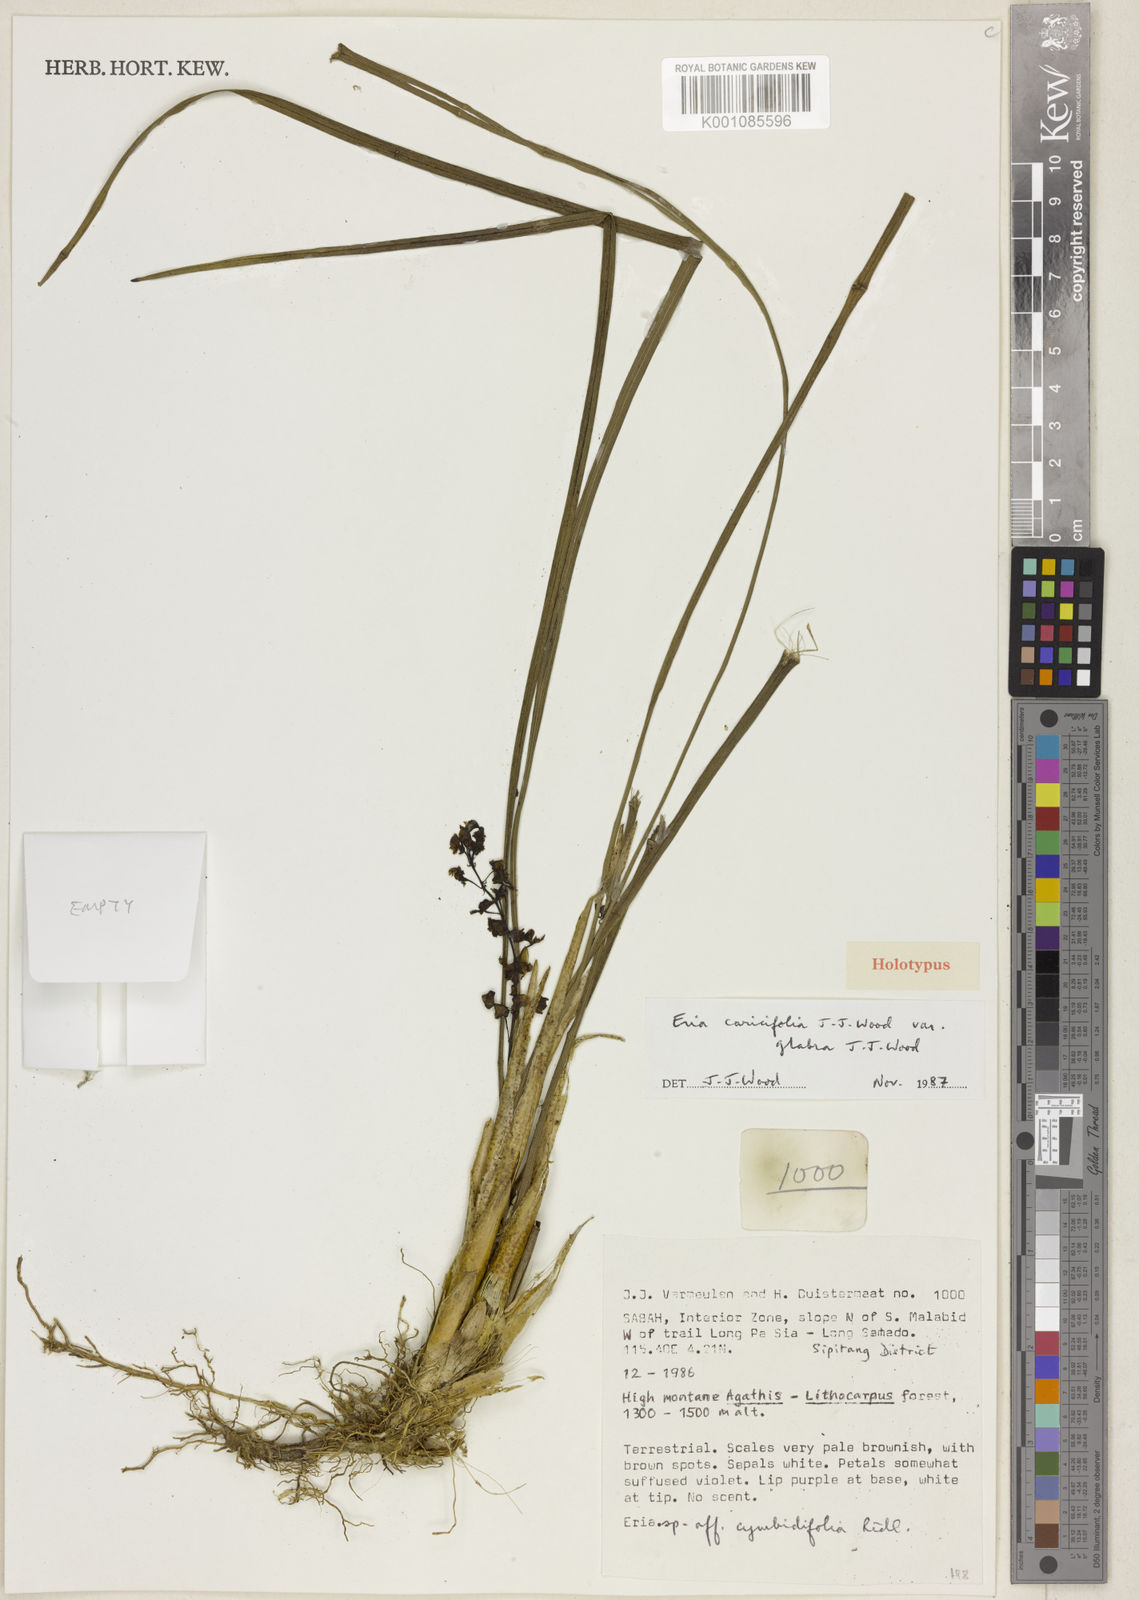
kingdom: Plantae
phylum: Tracheophyta
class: Liliopsida
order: Asparagales
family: Orchidaceae
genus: Cymboglossum
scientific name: Cymboglossum caricifolium
